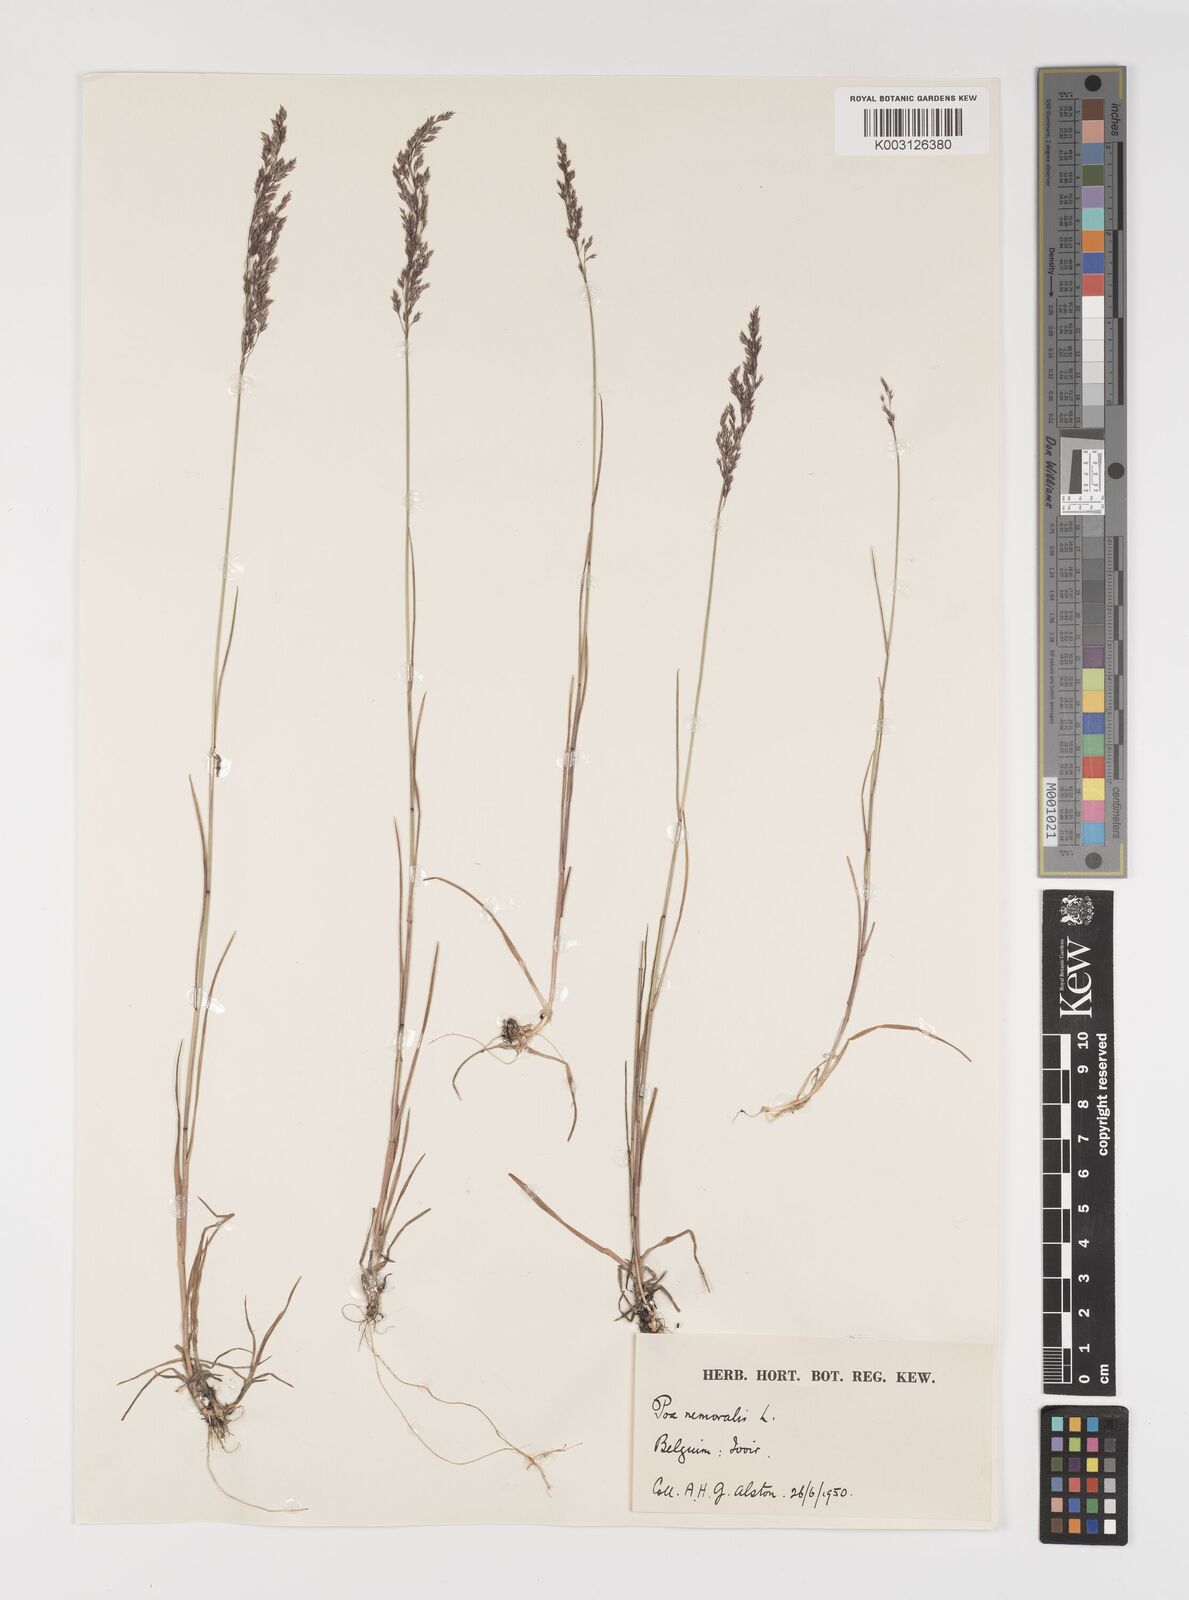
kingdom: Plantae
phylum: Tracheophyta
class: Liliopsida
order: Poales
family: Poaceae
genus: Poa
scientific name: Poa glauca
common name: Glaucous bluegrass
